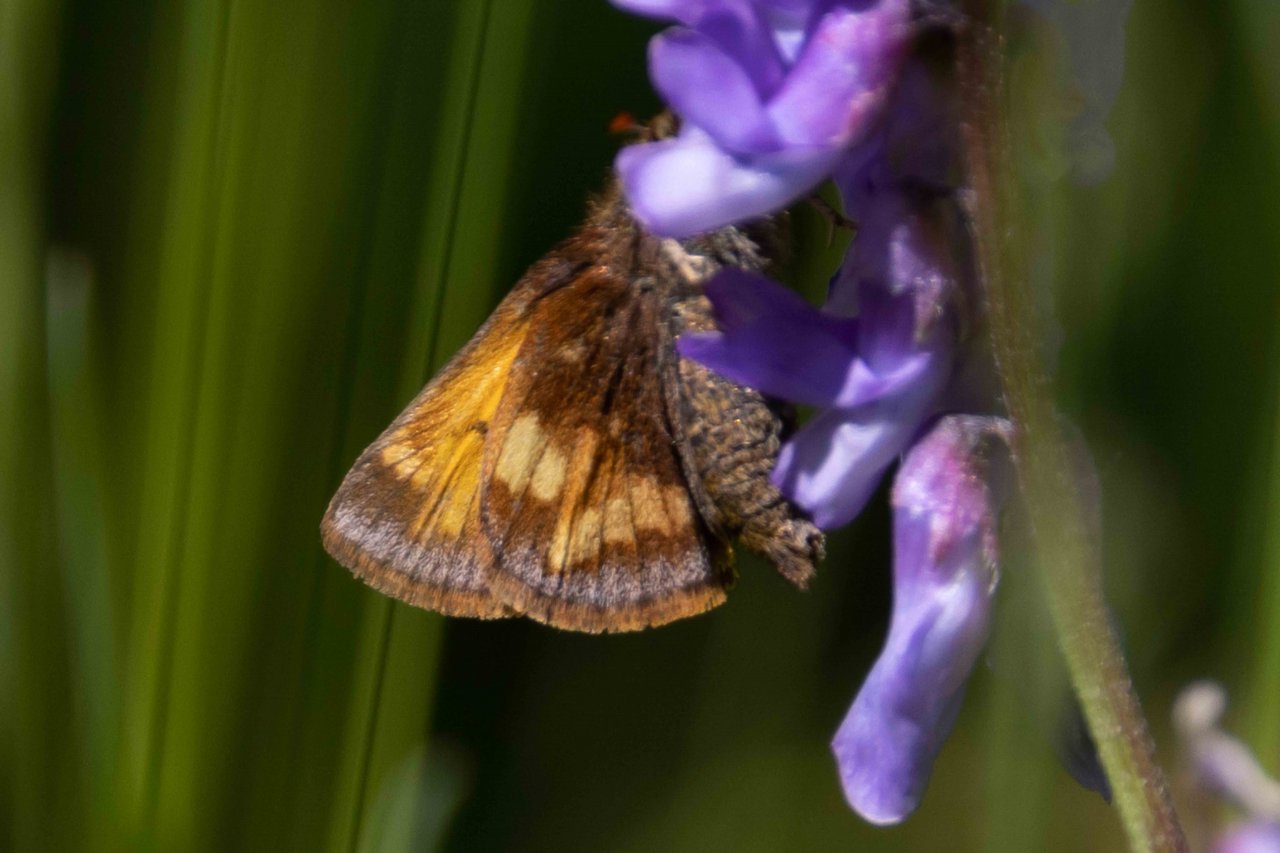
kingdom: Animalia
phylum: Arthropoda
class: Insecta
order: Lepidoptera
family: Hesperiidae
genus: Lon
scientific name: Lon hobomok
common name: Hobomok Skipper
